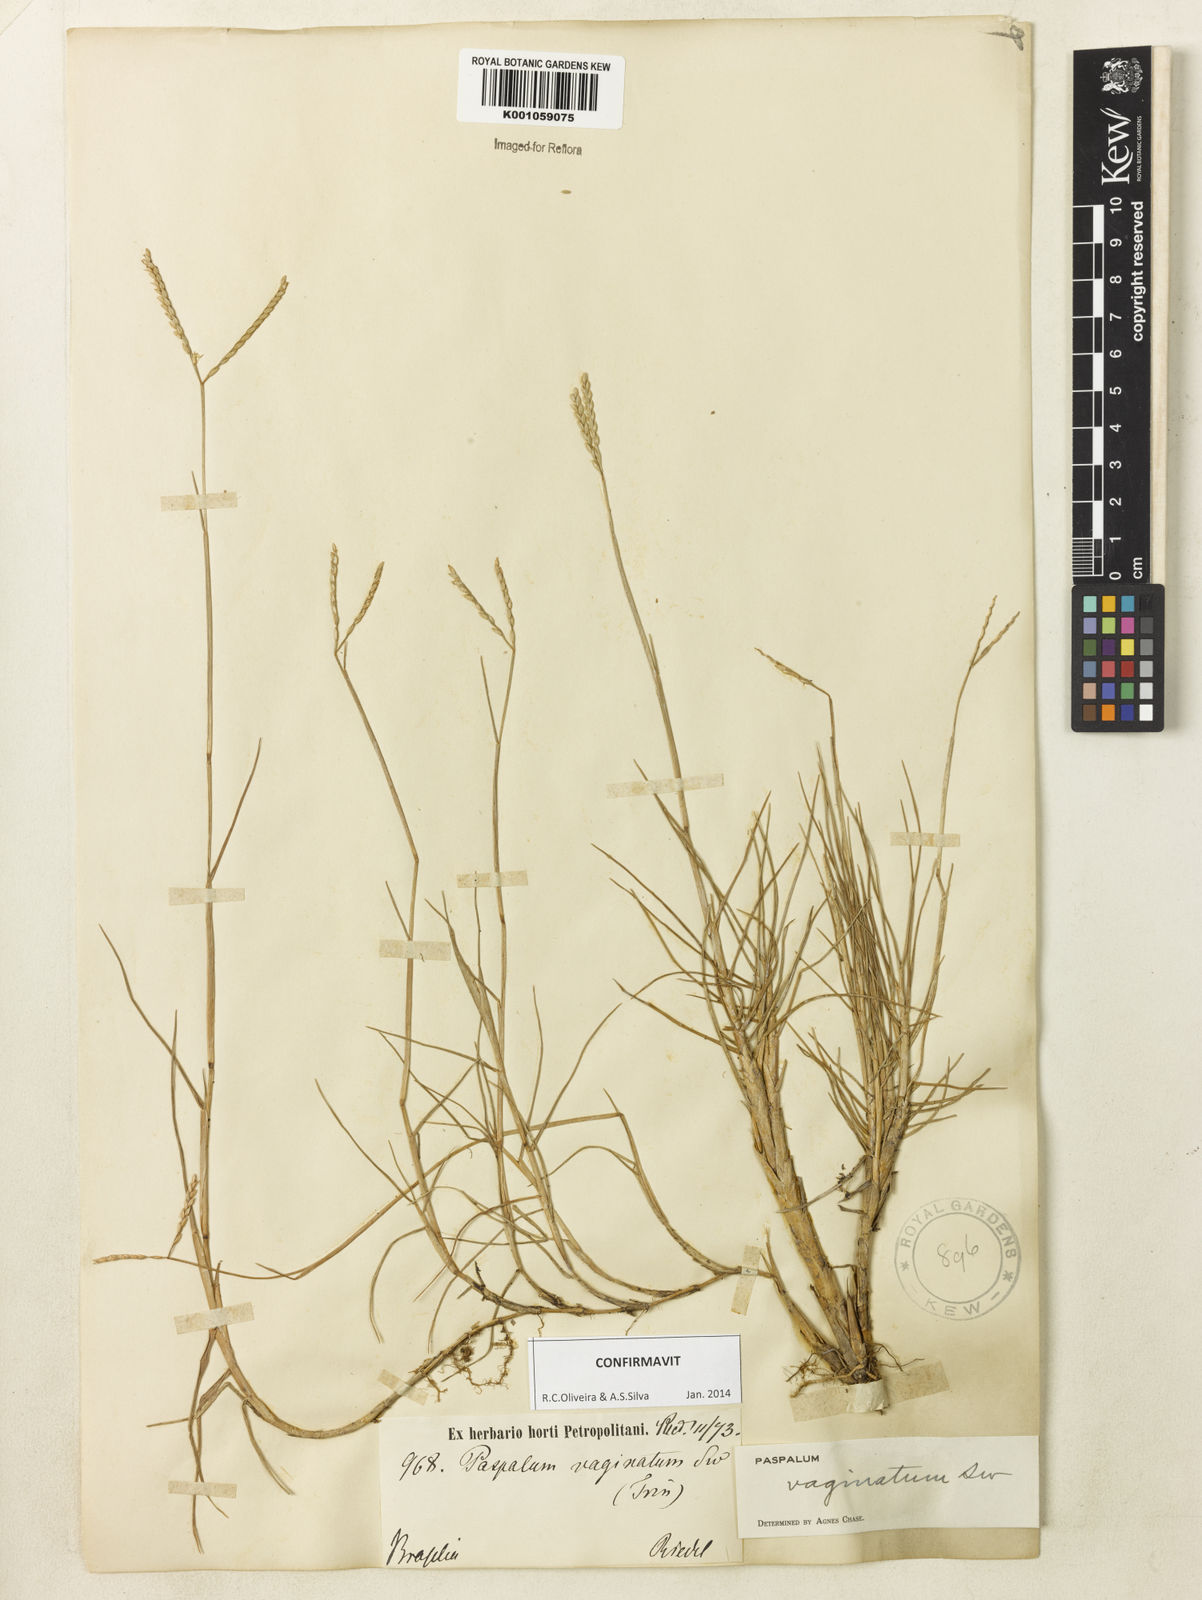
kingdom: Plantae
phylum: Tracheophyta
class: Liliopsida
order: Poales
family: Poaceae
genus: Paspalum
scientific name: Paspalum vaginatum
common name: Seashore paspalum
